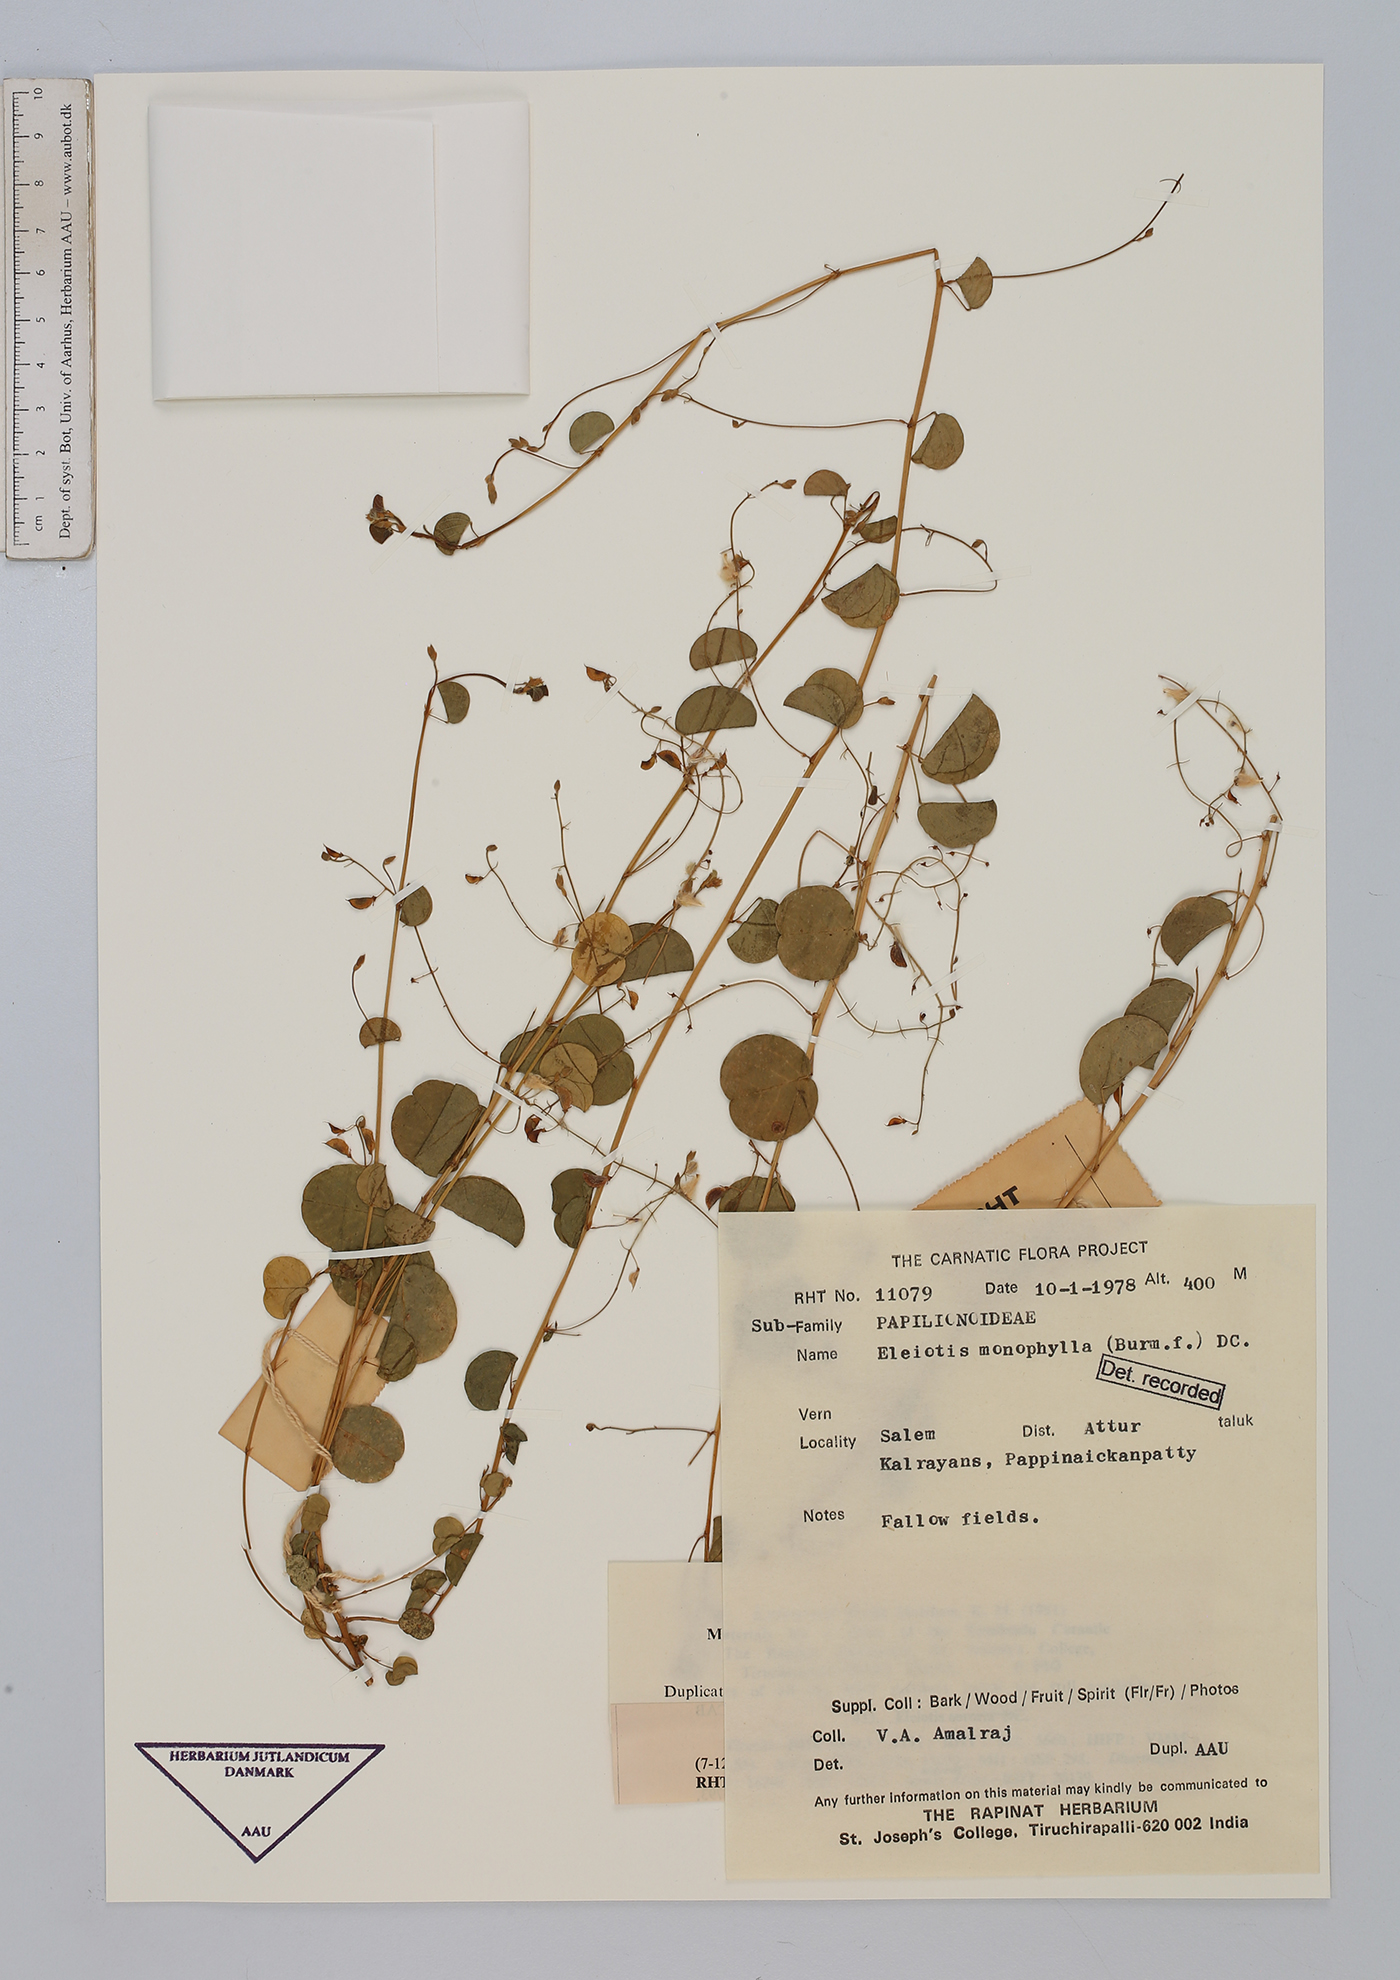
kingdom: Plantae
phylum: Tracheophyta
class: Magnoliopsida
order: Fabales
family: Fabaceae
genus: Eleiotis
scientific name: Eleiotis sororia
